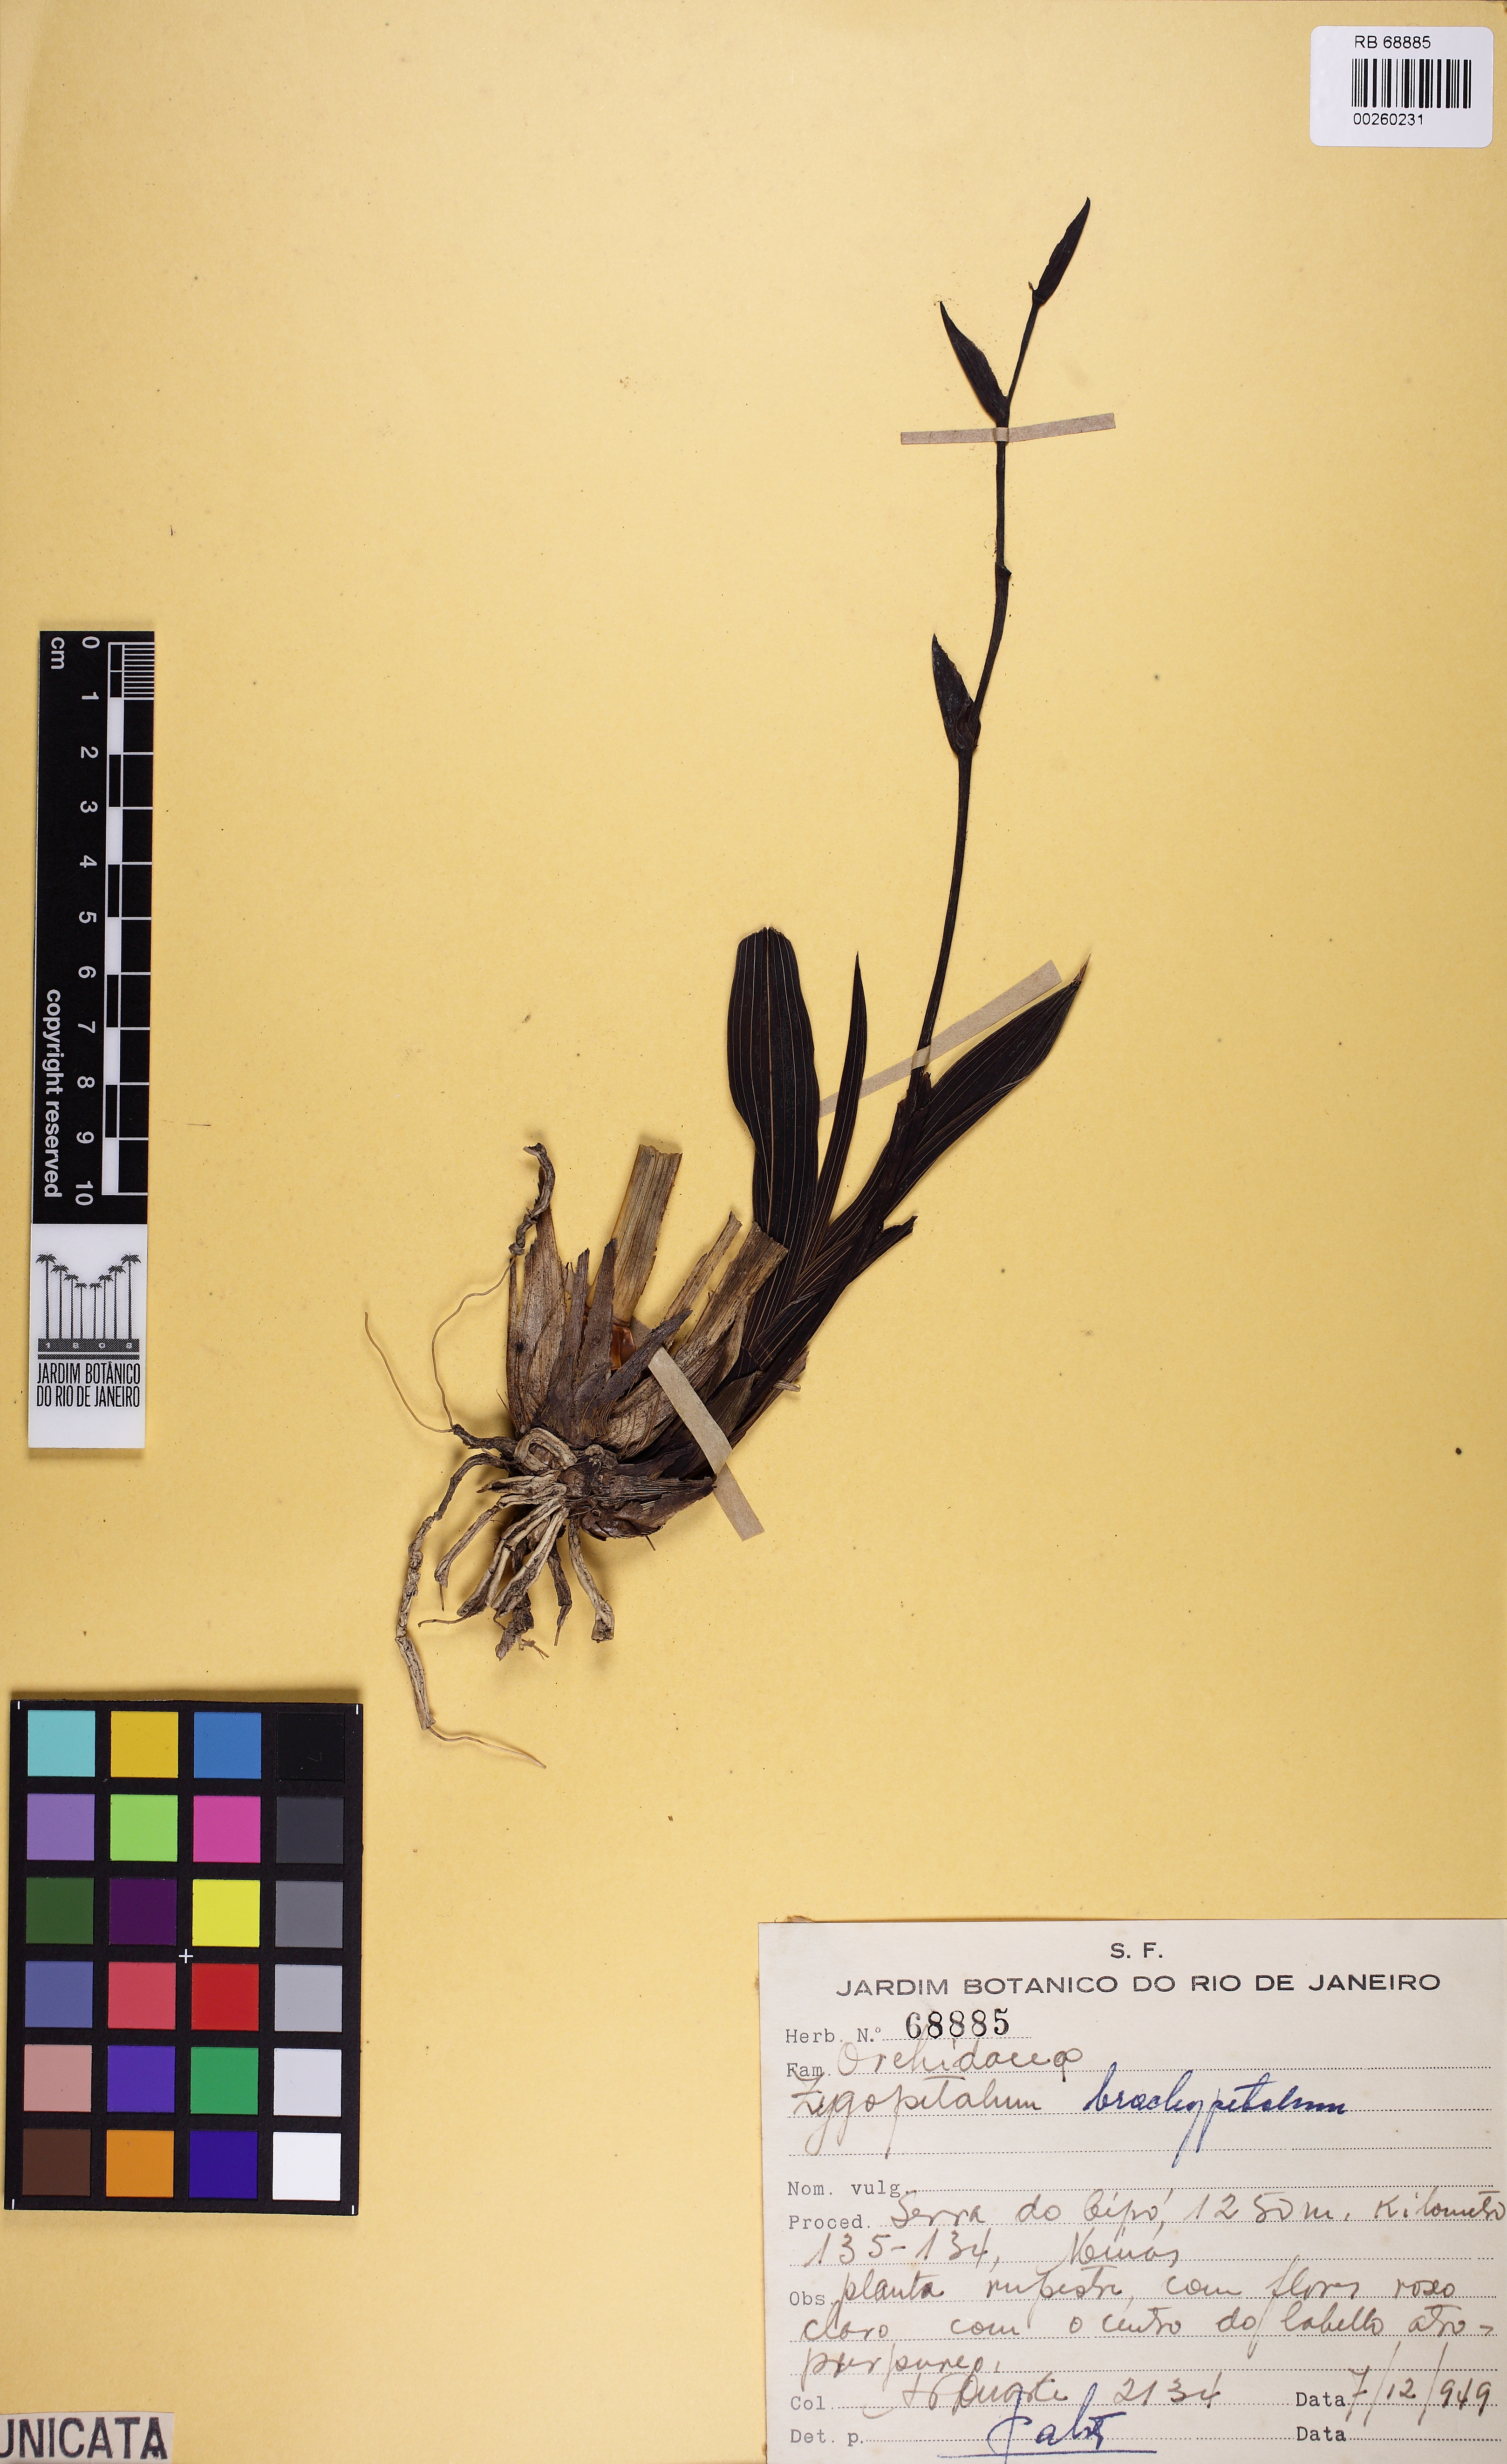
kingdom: Plantae
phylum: Tracheophyta
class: Liliopsida
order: Asparagales
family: Orchidaceae
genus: Zygopetalum
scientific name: Zygopetalum triste
